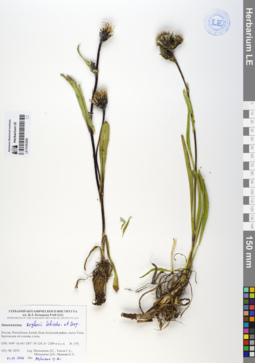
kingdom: Plantae
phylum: Tracheophyta
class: Magnoliopsida
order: Asterales
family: Asteraceae
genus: Saussurea
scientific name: Saussurea krylovii
